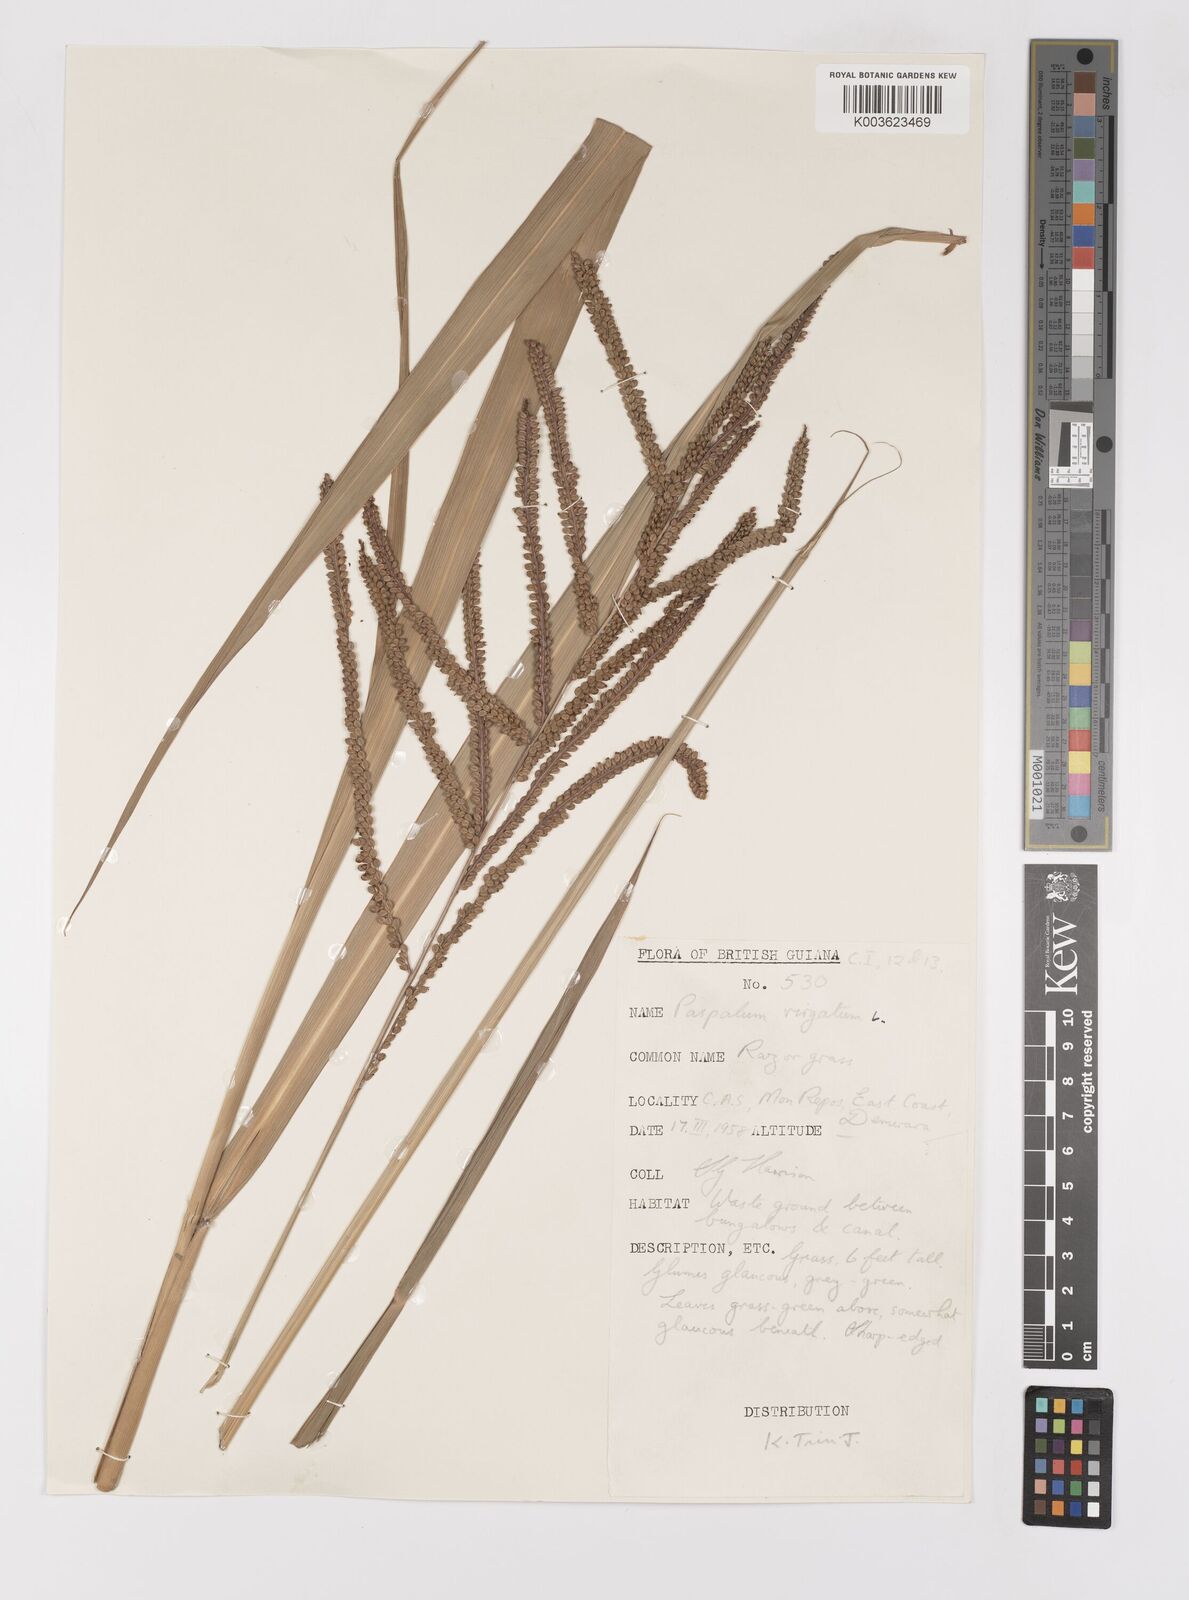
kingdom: Plantae
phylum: Tracheophyta
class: Liliopsida
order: Poales
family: Poaceae
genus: Paspalum
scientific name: Paspalum virgatum
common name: Talquezal
